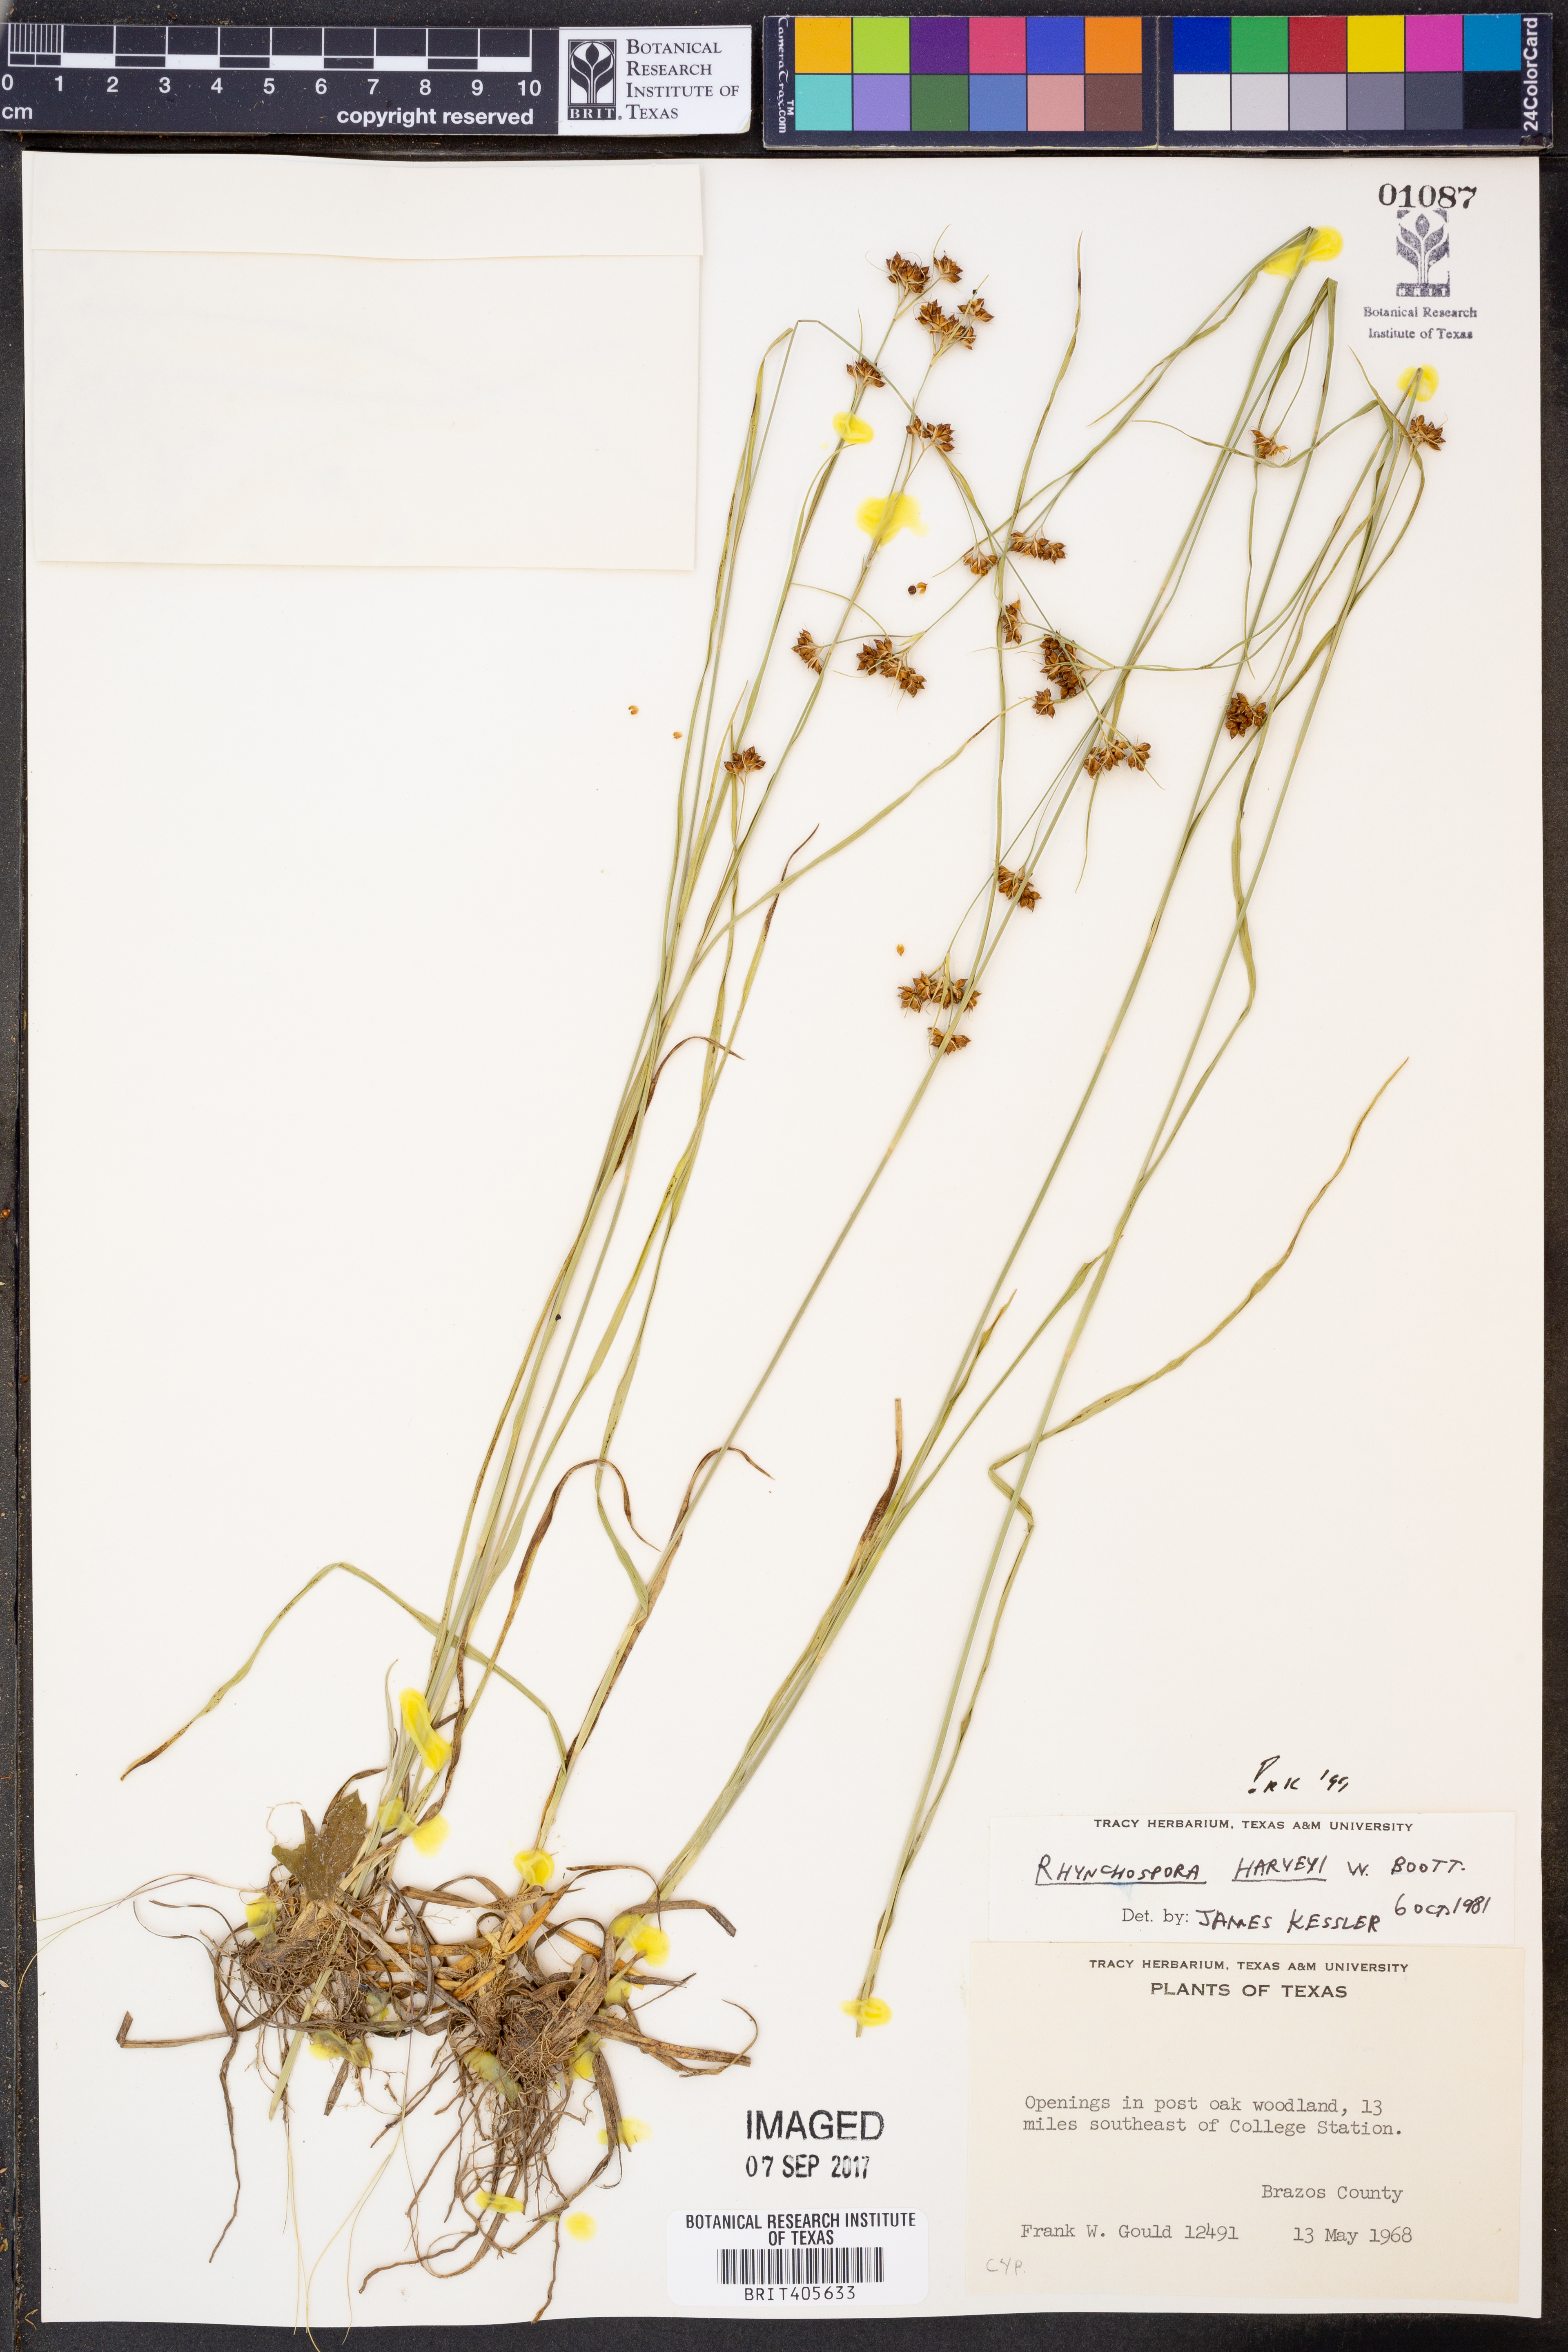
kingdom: Plantae
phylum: Tracheophyta
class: Liliopsida
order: Poales
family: Cyperaceae
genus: Rhynchospora
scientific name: Rhynchospora harveyi
